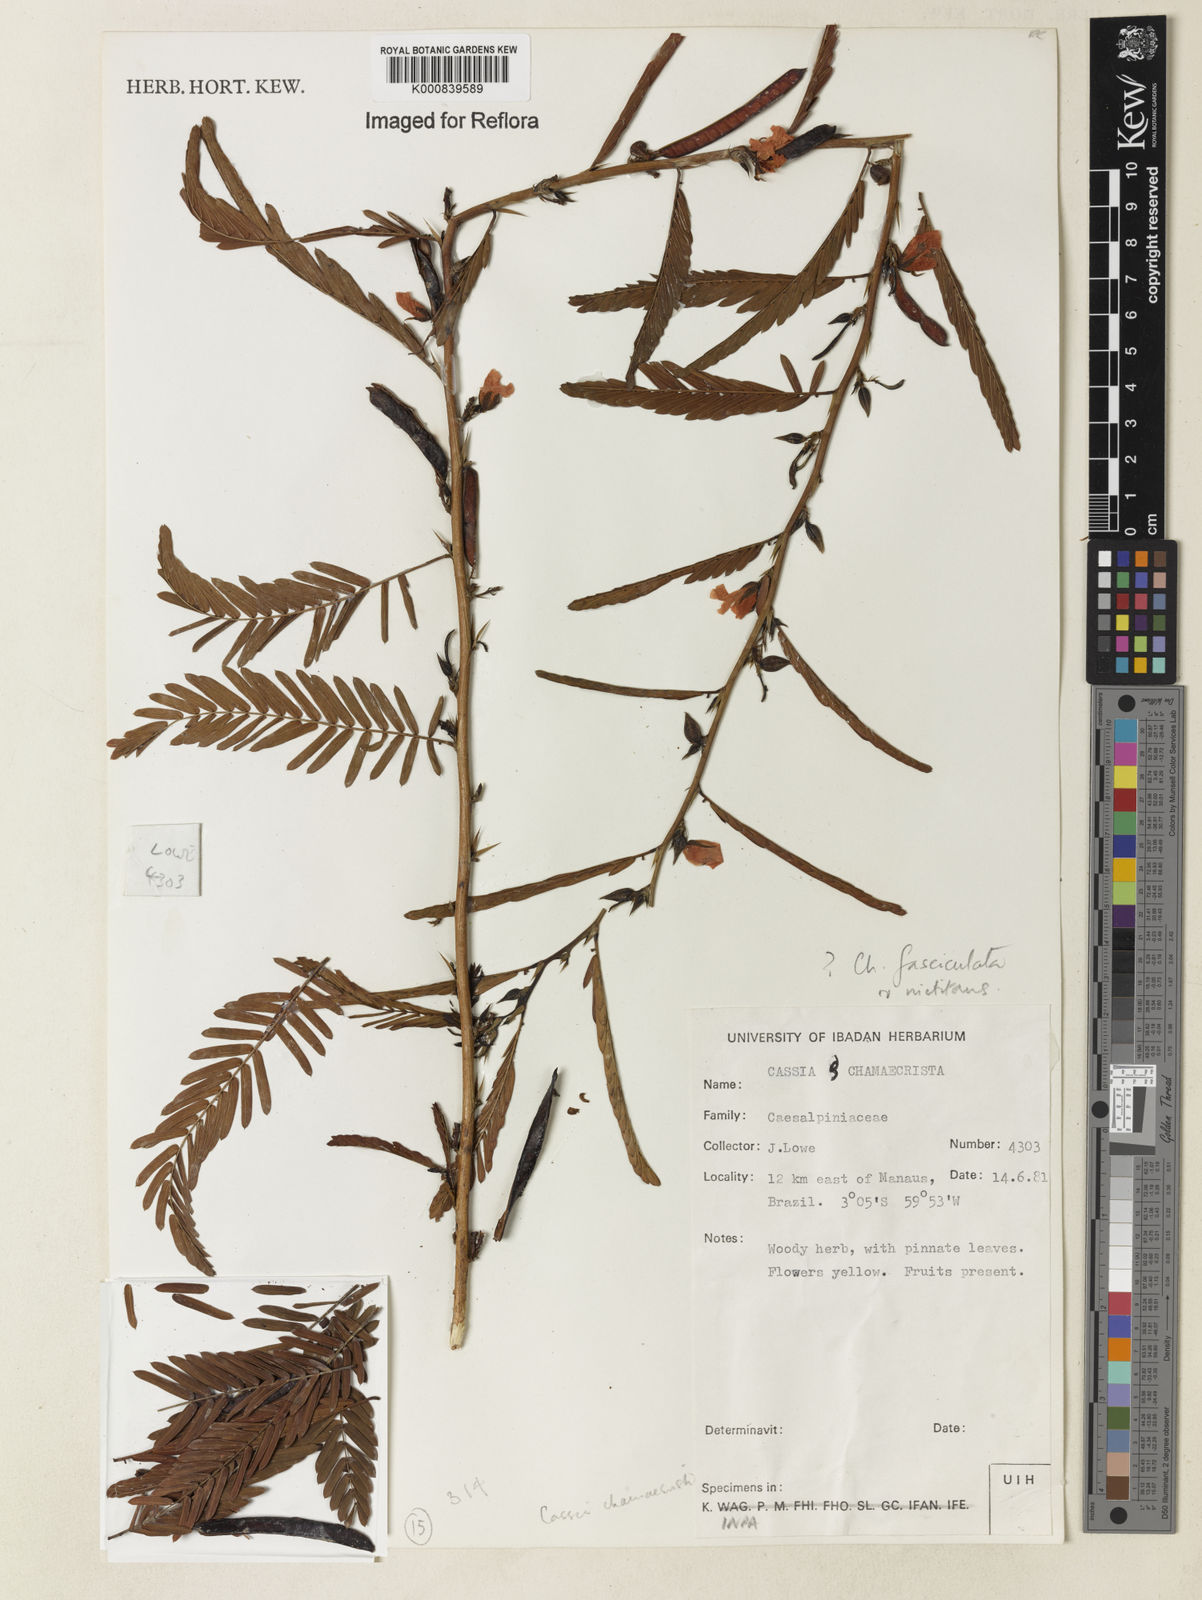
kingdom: Plantae
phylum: Tracheophyta
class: Magnoliopsida
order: Fabales
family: Fabaceae
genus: Chamaecrista
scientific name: Chamaecrista nictitans
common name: Sensitive cassia
